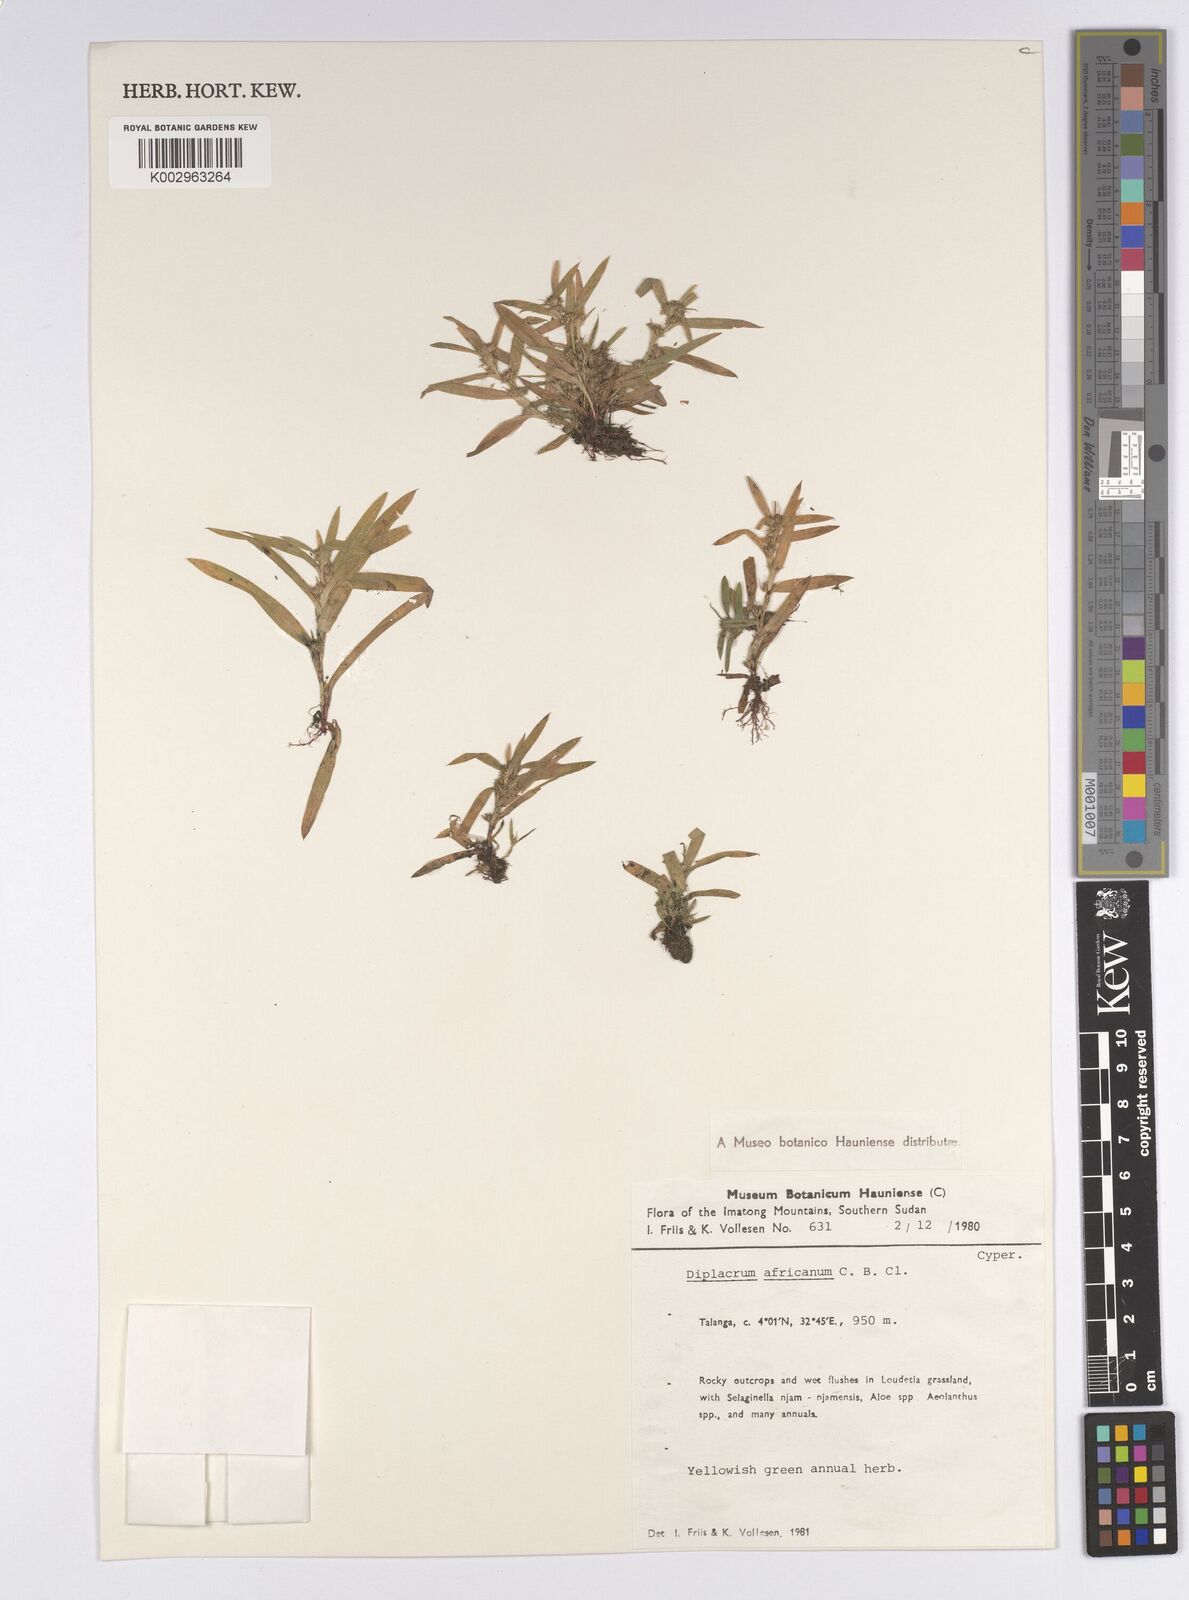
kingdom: Plantae
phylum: Tracheophyta
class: Liliopsida
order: Poales
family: Cyperaceae
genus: Diplacrum
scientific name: Diplacrum africanum
